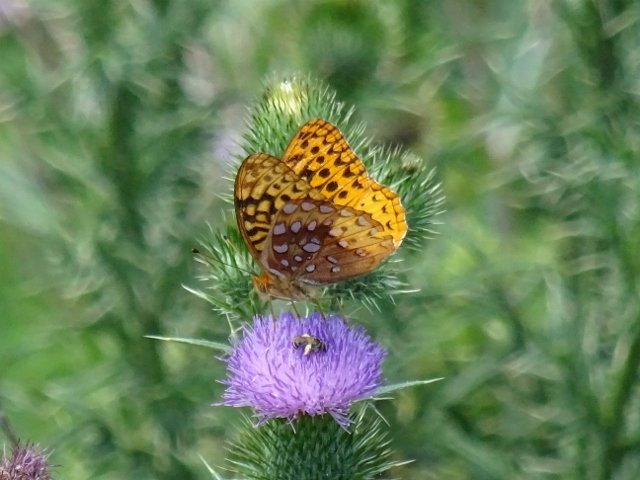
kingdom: Animalia
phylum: Arthropoda
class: Insecta
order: Lepidoptera
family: Nymphalidae
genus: Speyeria
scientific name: Speyeria cybele
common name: Great Spangled Fritillary
